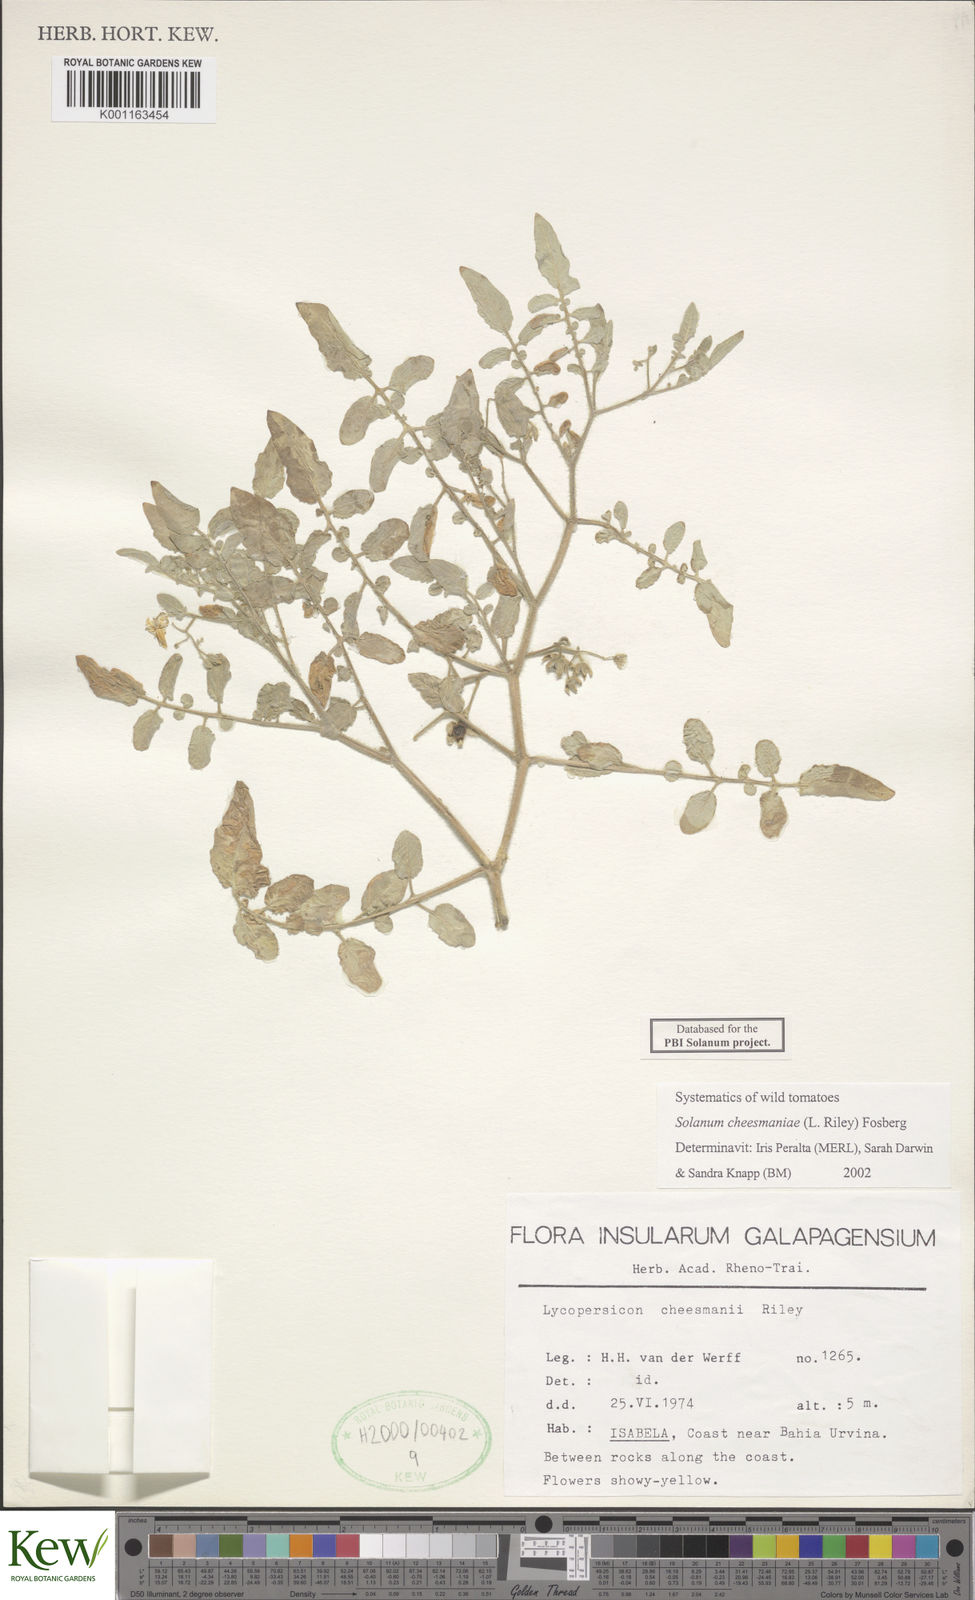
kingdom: Plantae
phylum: Tracheophyta
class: Magnoliopsida
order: Solanales
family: Solanaceae
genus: Solanum
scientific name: Solanum cheesmaniae
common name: Galapagos tomato
